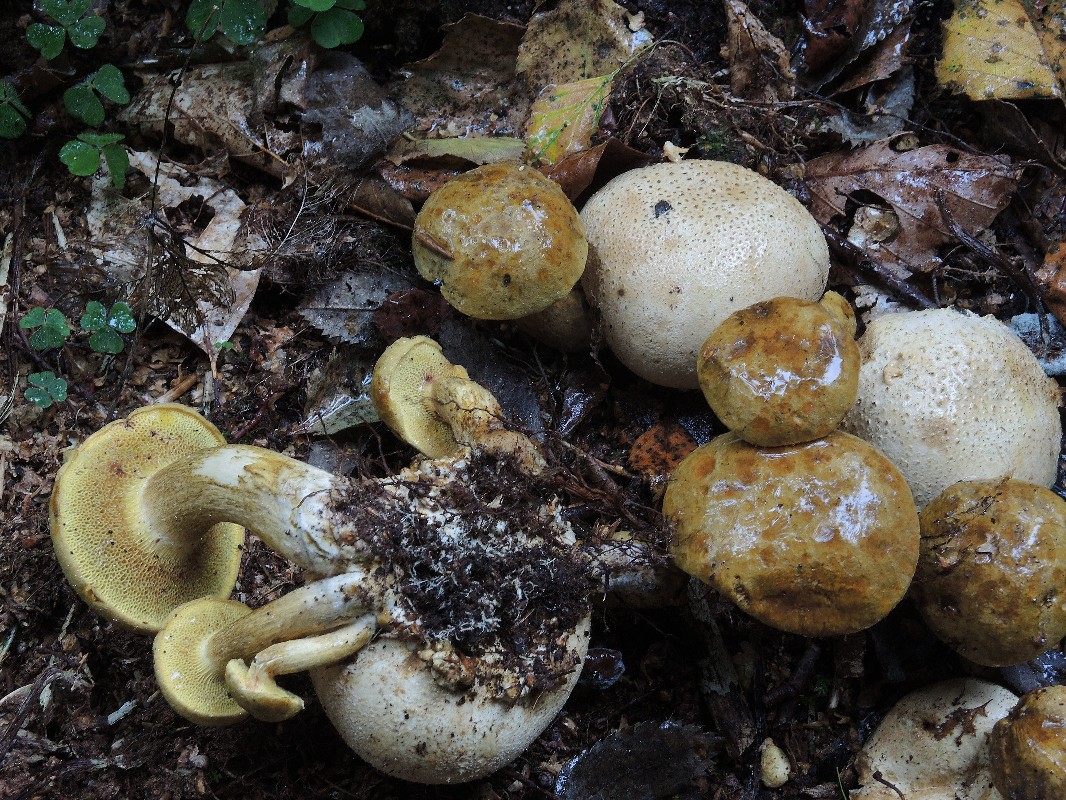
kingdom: Fungi
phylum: Basidiomycota
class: Agaricomycetes
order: Boletales
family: Boletaceae
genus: Pseudoboletus
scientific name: Pseudoboletus parasiticus
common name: snyltende rørhat
